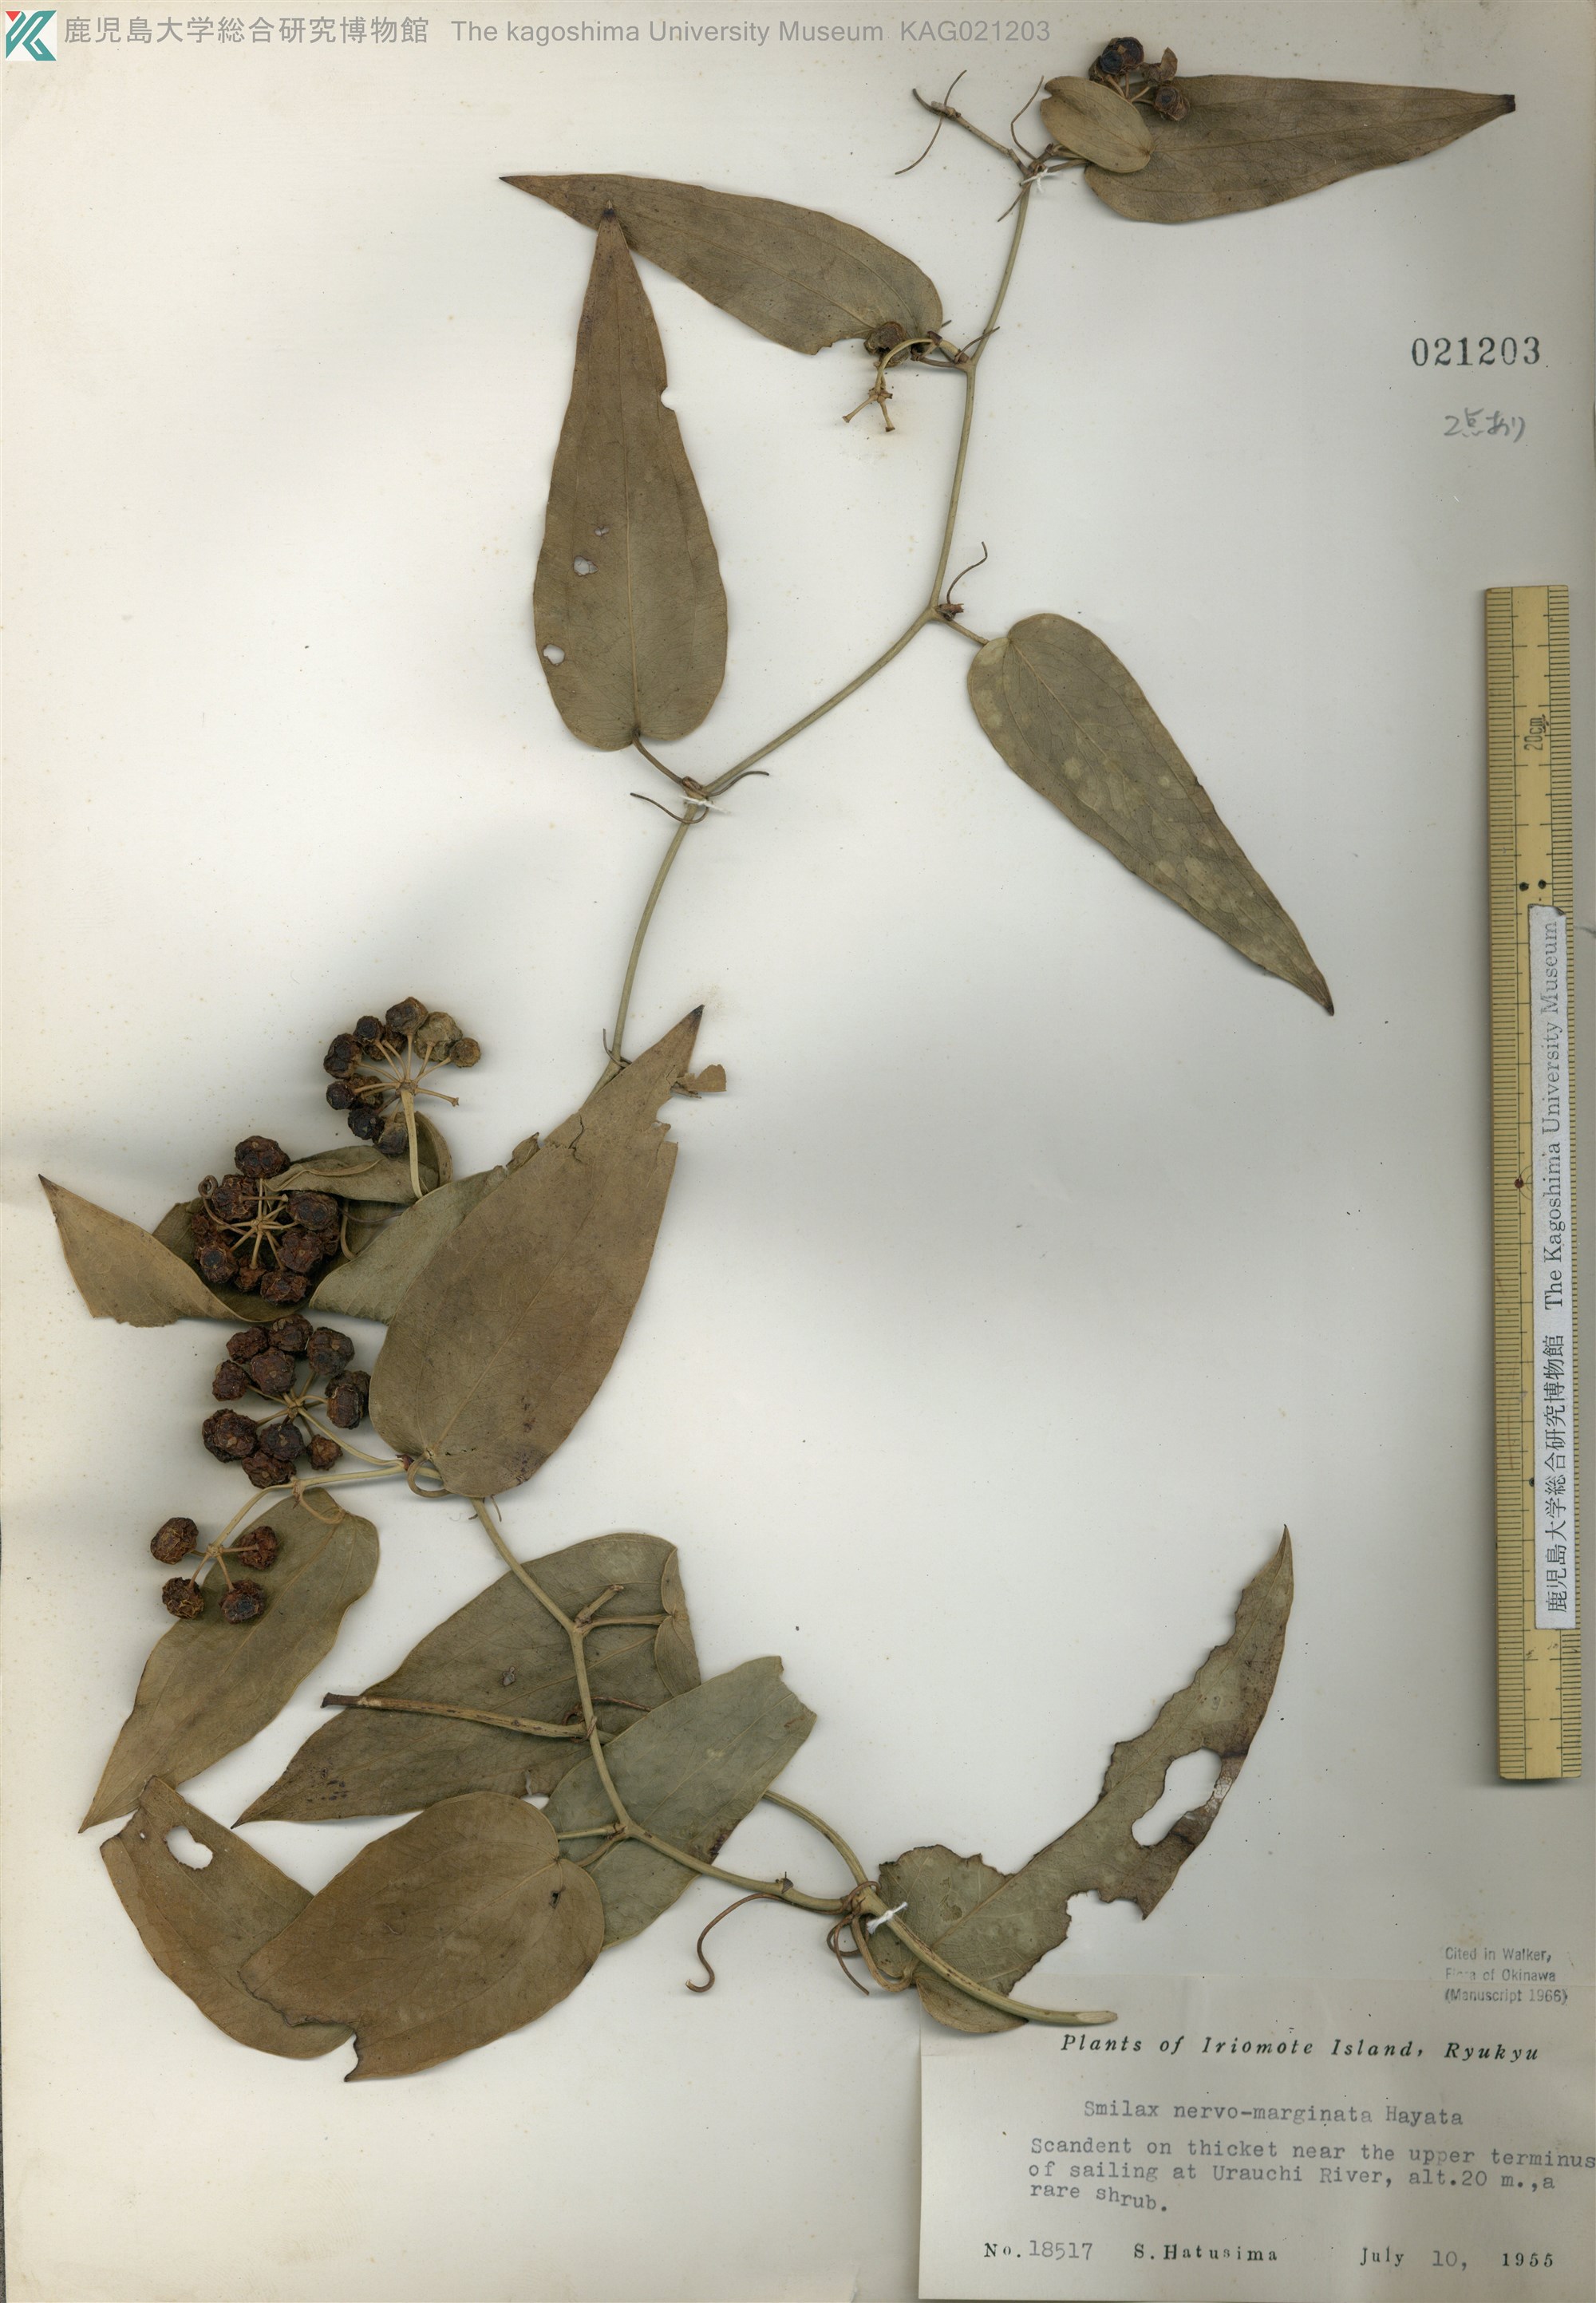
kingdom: Plantae
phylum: Tracheophyta
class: Liliopsida
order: Liliales
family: Smilacaceae
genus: Smilax
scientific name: Smilax nervomarginata
